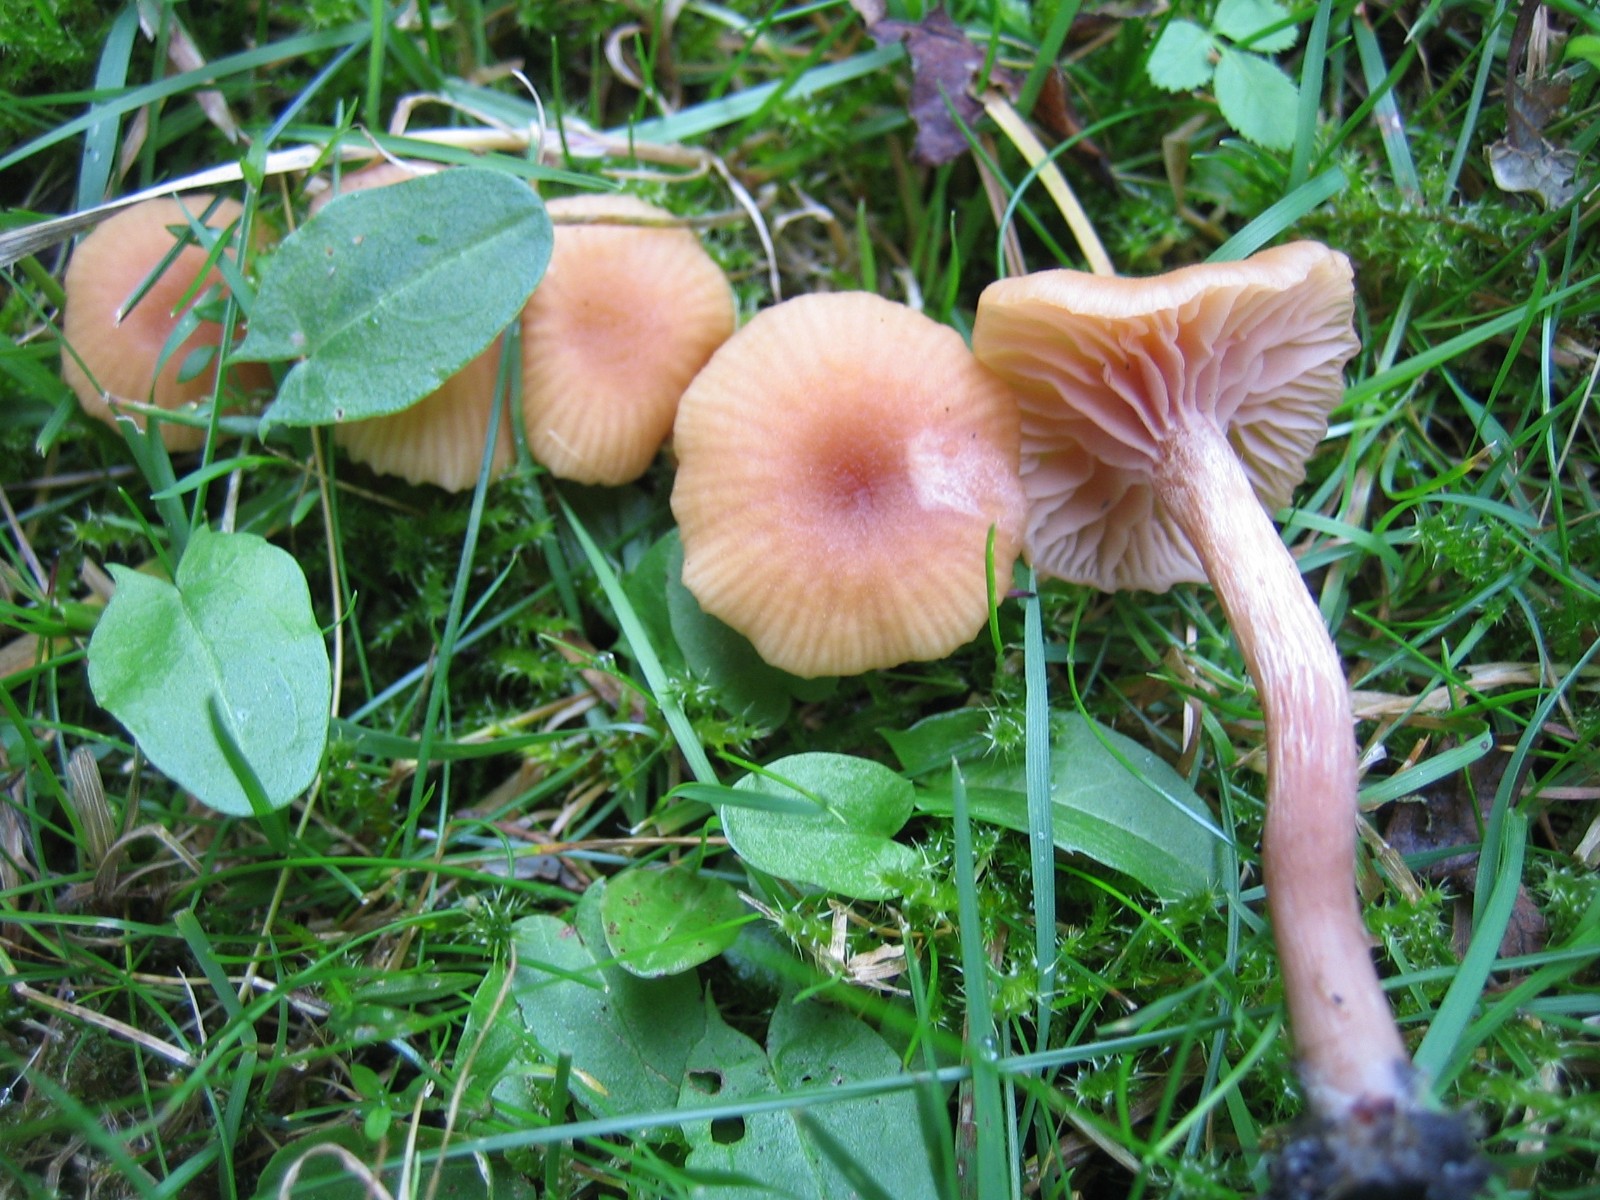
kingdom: Fungi
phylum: Basidiomycota
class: Agaricomycetes
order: Agaricales
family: Hydnangiaceae
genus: Laccaria
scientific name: Laccaria laccata
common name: rød ametysthat
